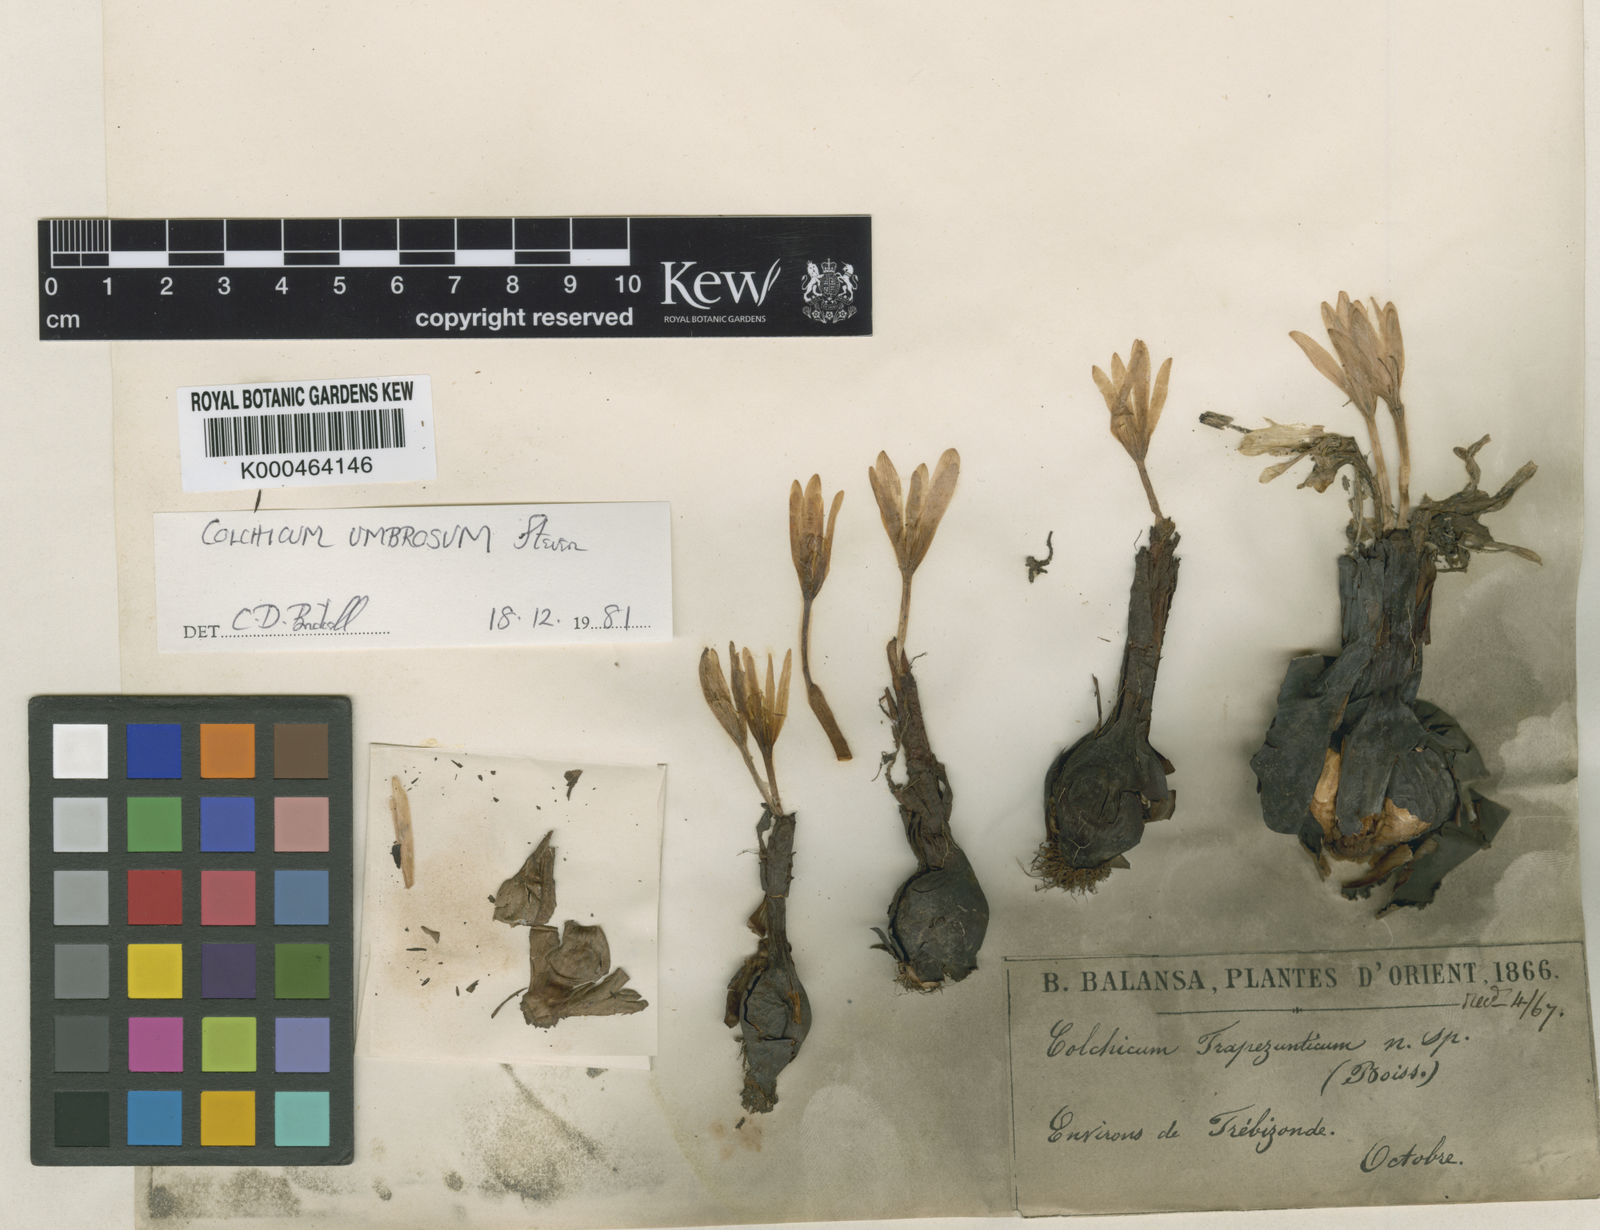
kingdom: Plantae
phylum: Tracheophyta
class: Liliopsida
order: Liliales
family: Colchicaceae
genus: Colchicum
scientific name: Colchicum umbrosum
